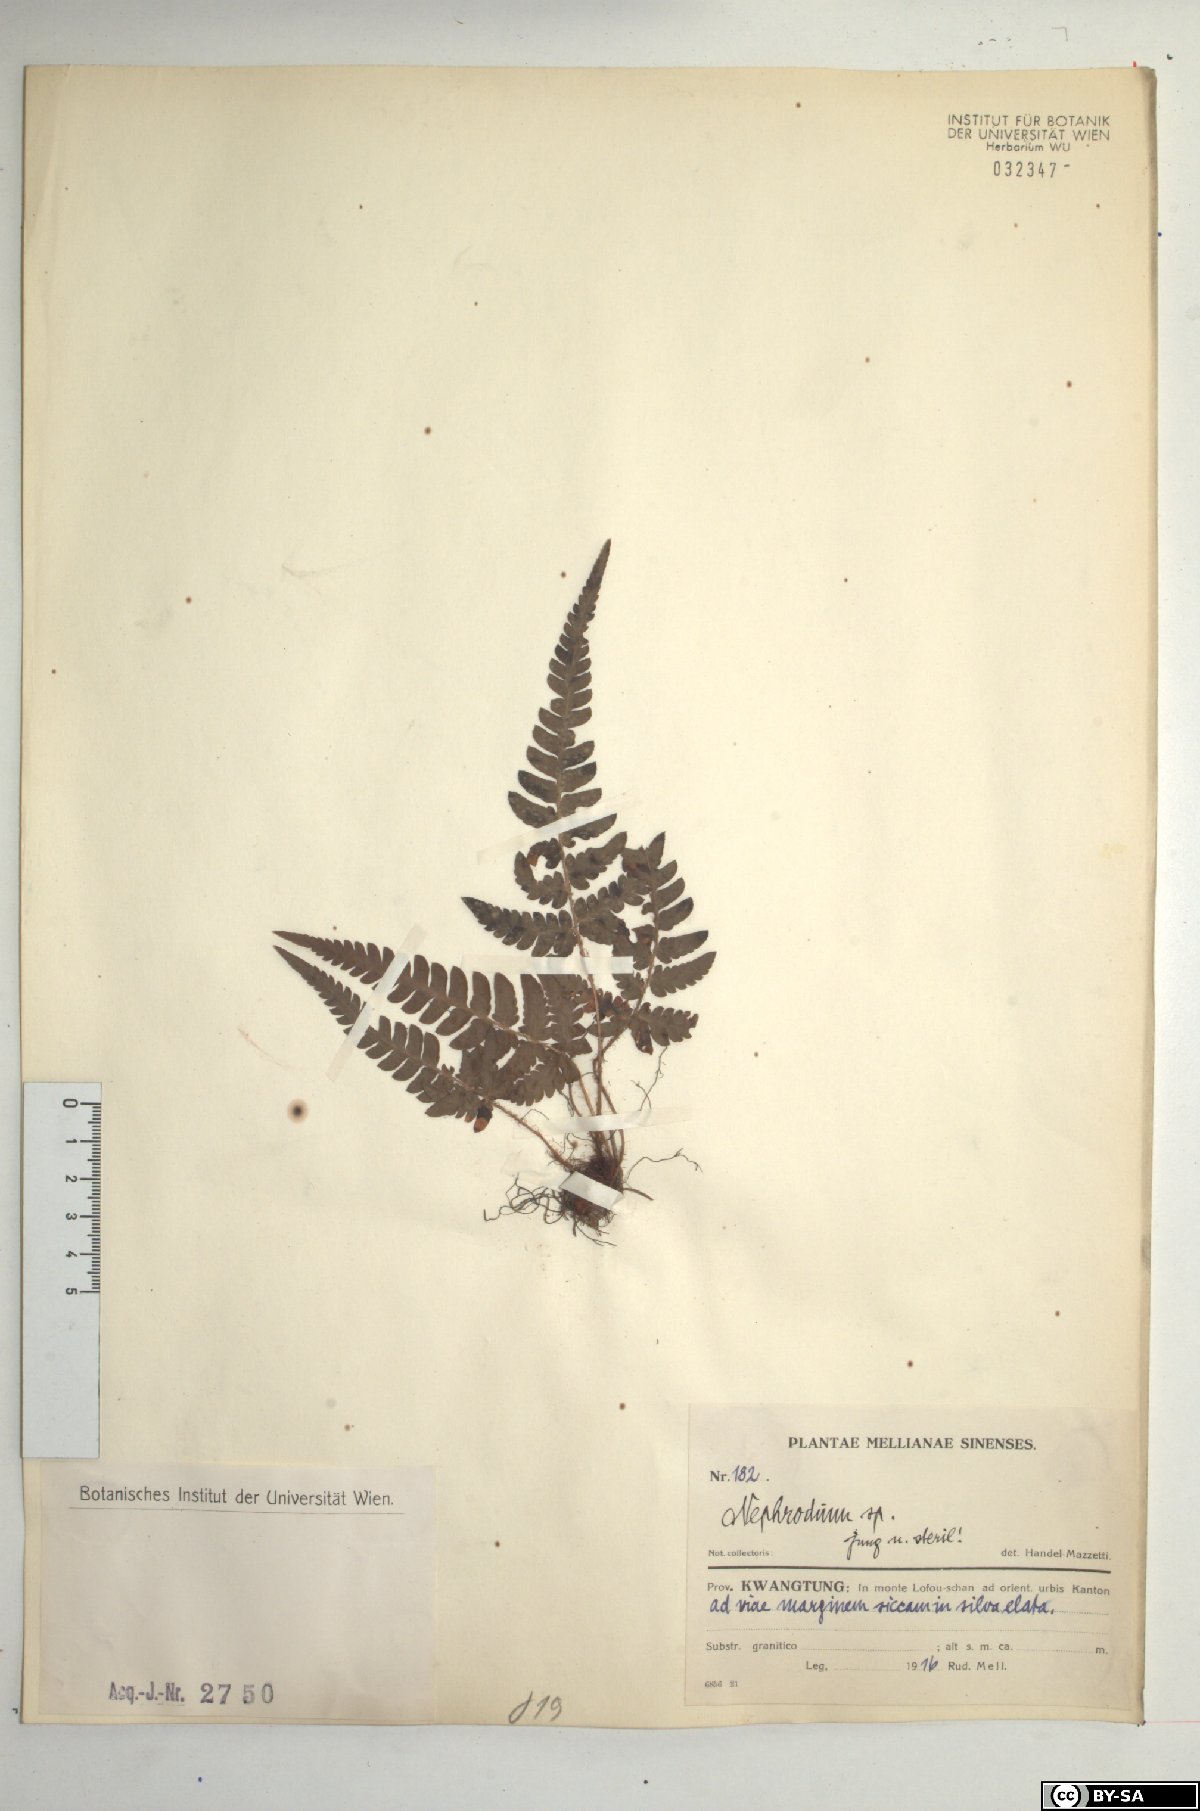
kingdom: Plantae
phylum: Tracheophyta
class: Polypodiopsida
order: Polypodiales
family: Dryopteridaceae
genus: Dryopteris
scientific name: Dryopteris
